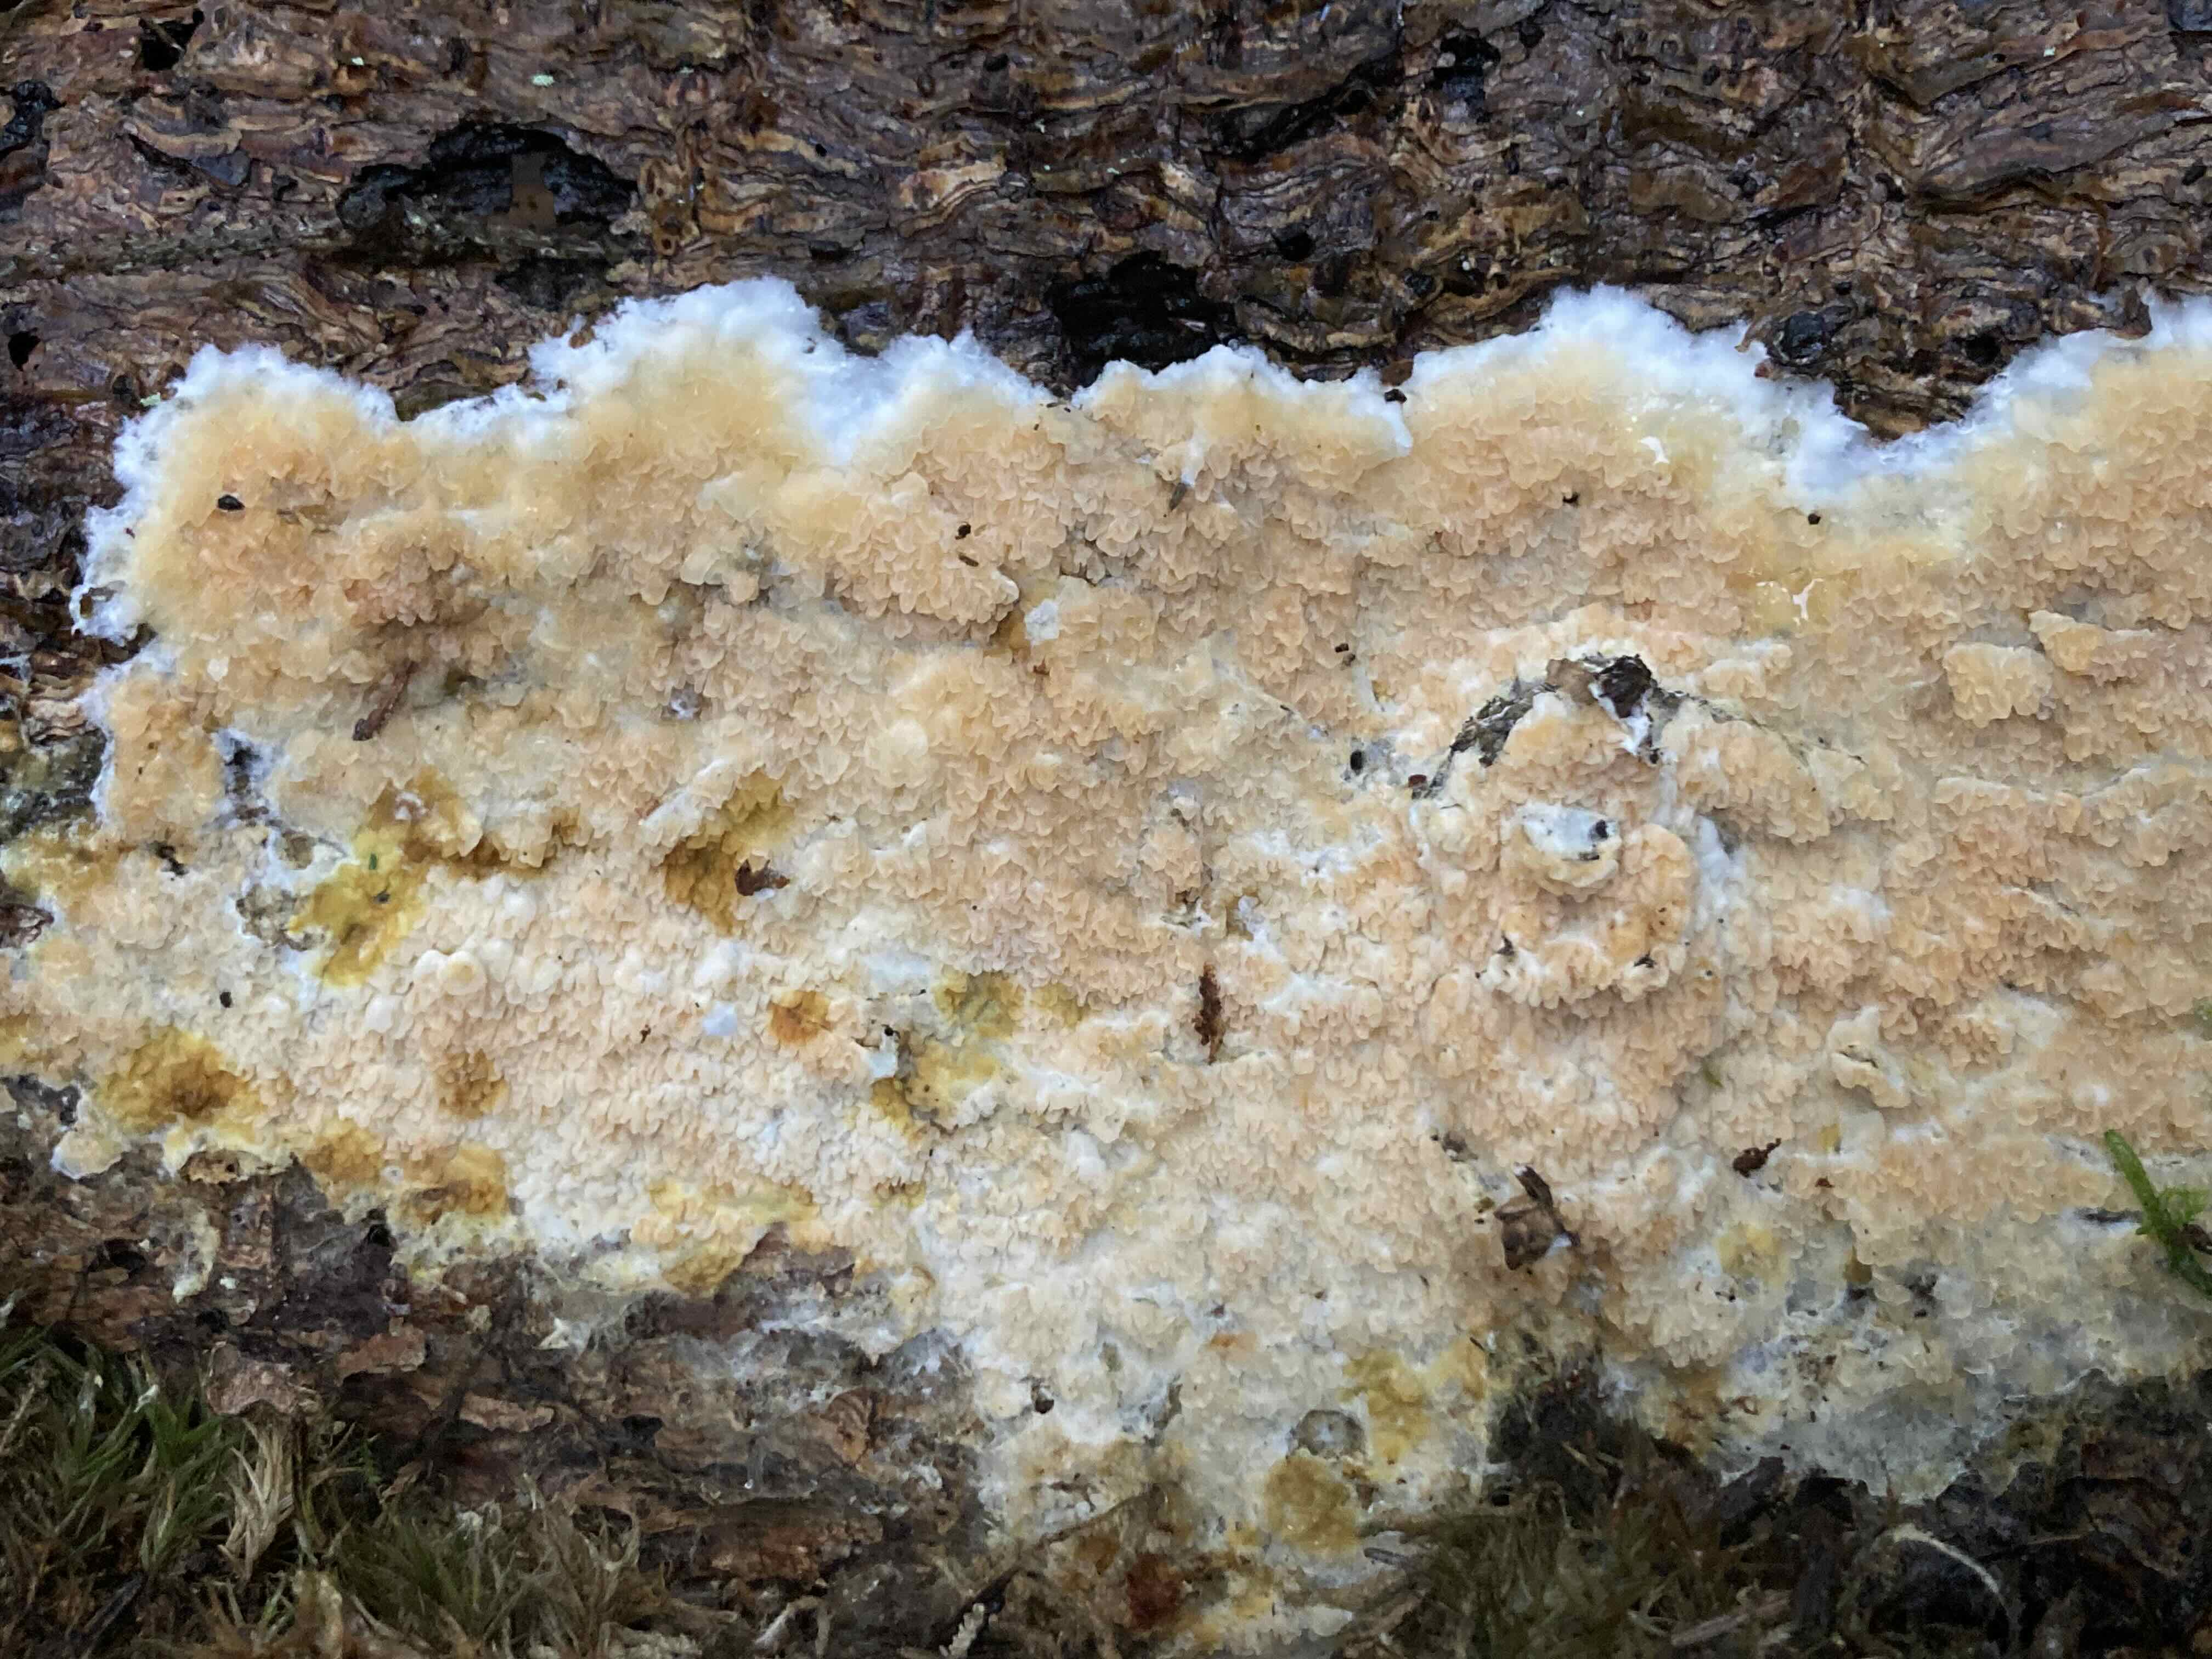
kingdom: Fungi
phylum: Basidiomycota
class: Agaricomycetes
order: Boletales
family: Hygrophoropsidaceae
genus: Leucogyrophana
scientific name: Leucogyrophana mollusca
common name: blød hussvamp
